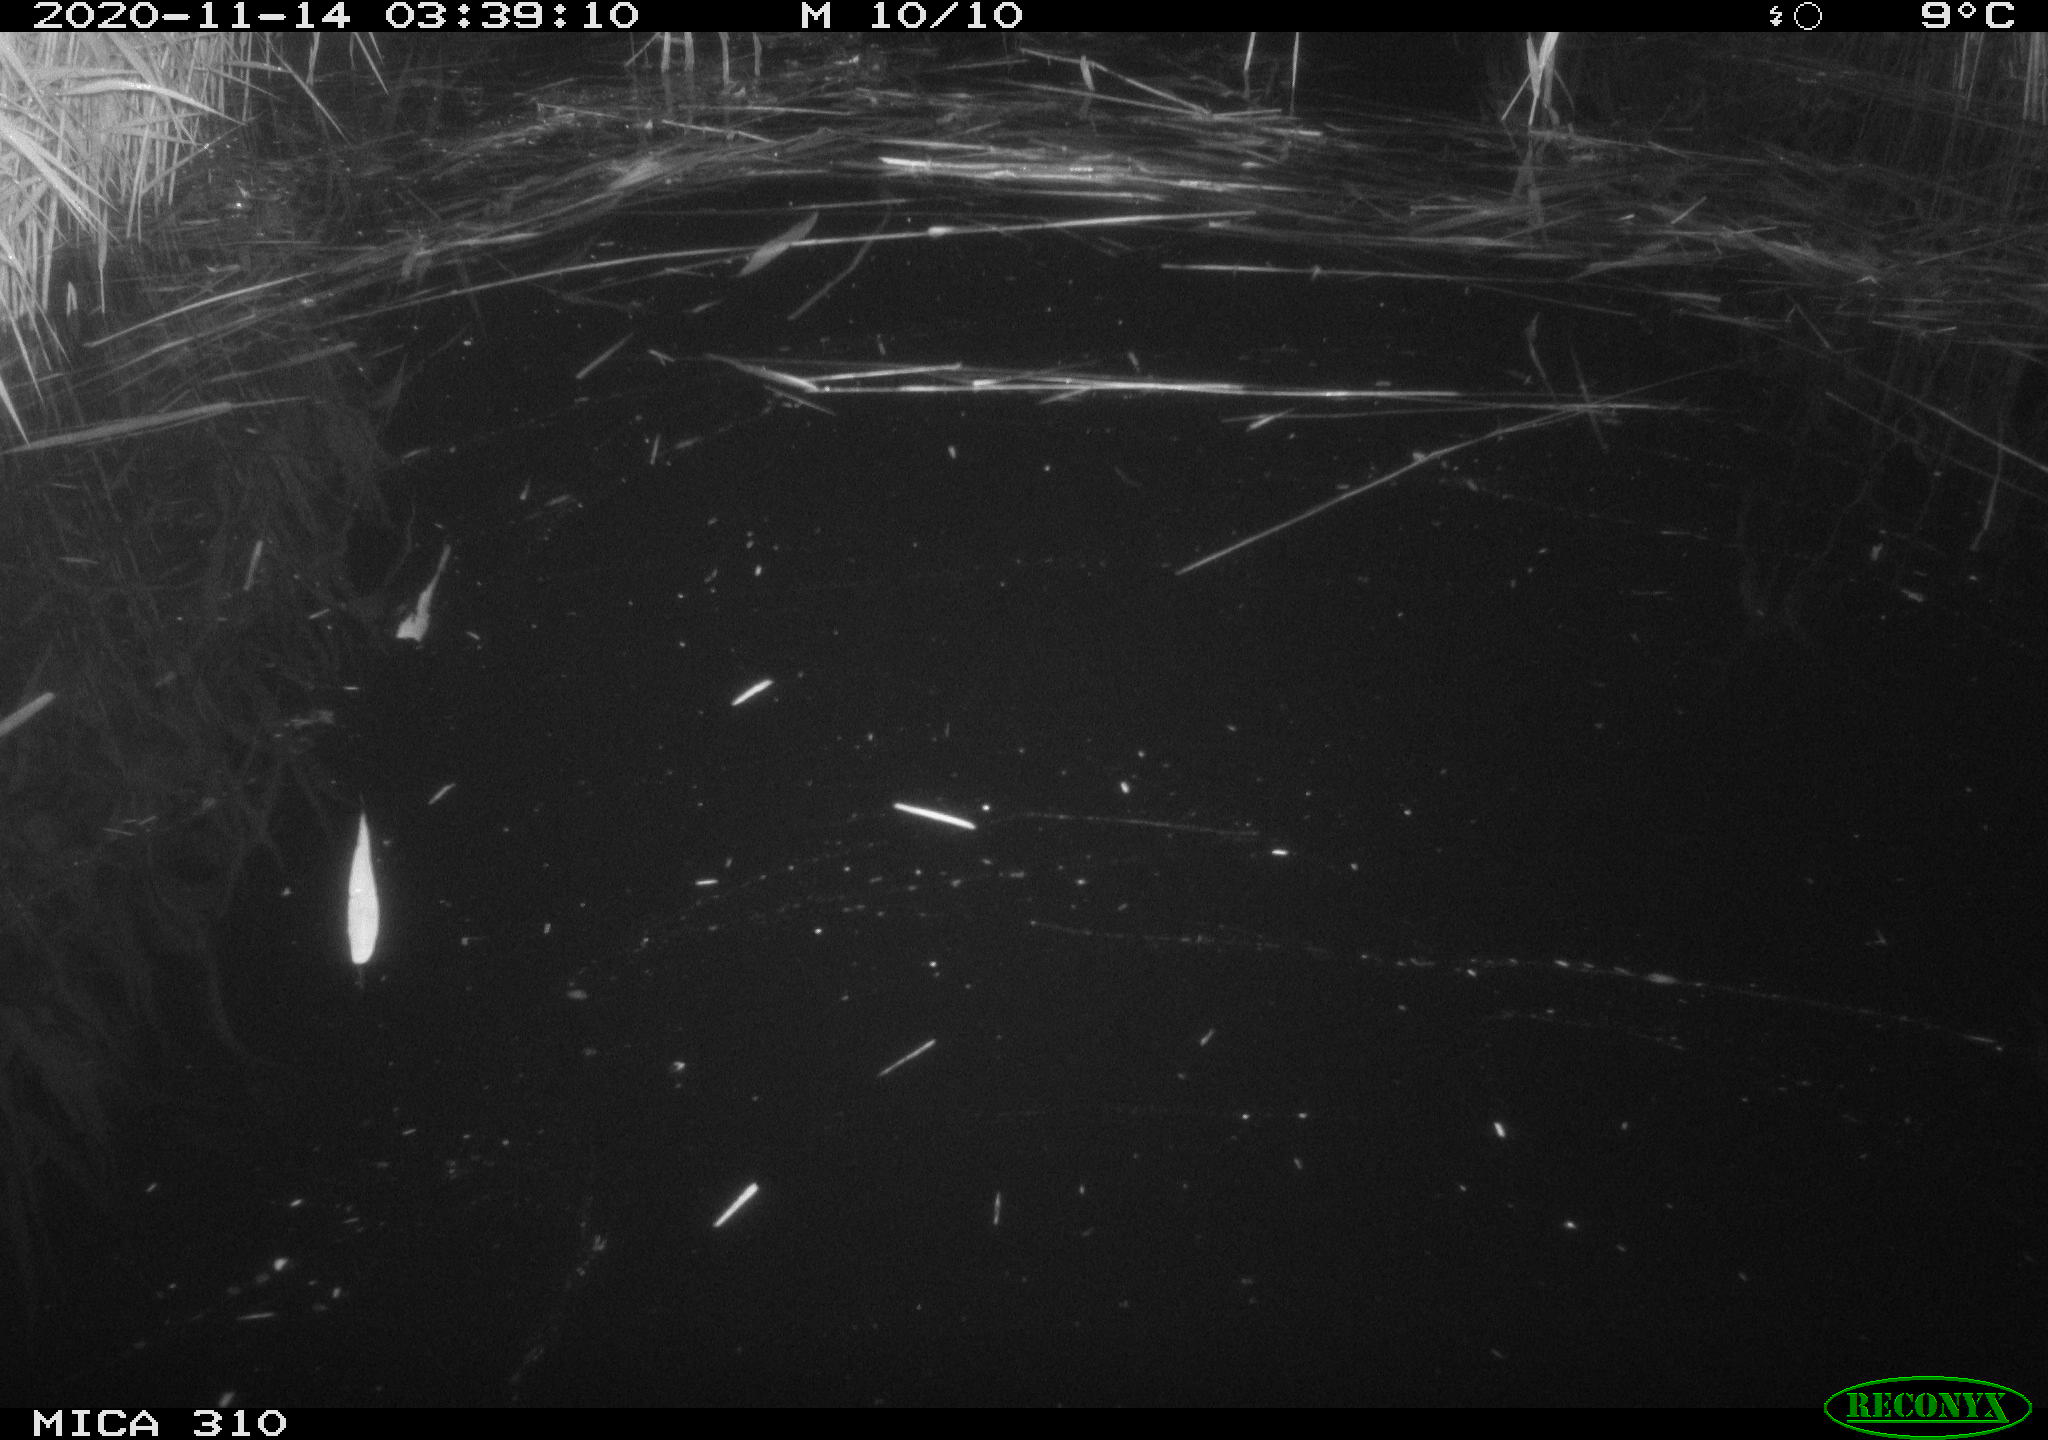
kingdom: Animalia
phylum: Chordata
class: Mammalia
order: Rodentia
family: Muridae
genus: Rattus
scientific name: Rattus norvegicus
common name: Brown rat
